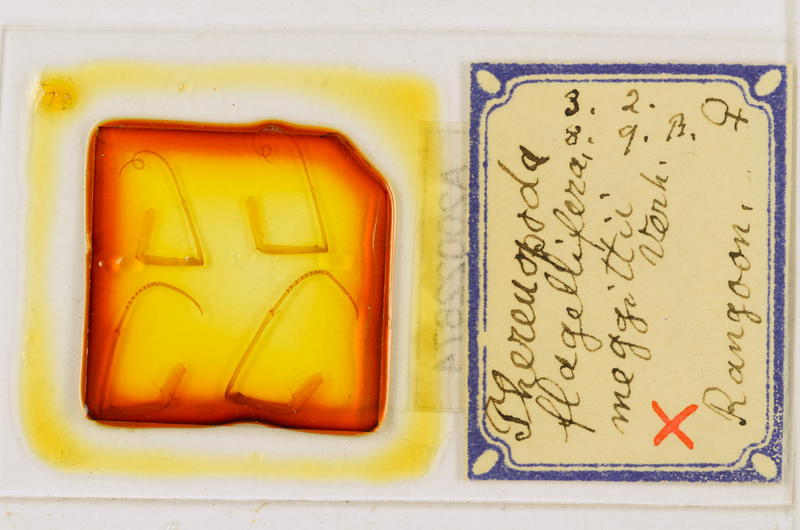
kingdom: Animalia
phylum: Arthropoda
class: Chilopoda
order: Scutigeromorpha
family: Scutigeridae
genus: Thereuopoda
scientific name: Thereuopoda longicornis
